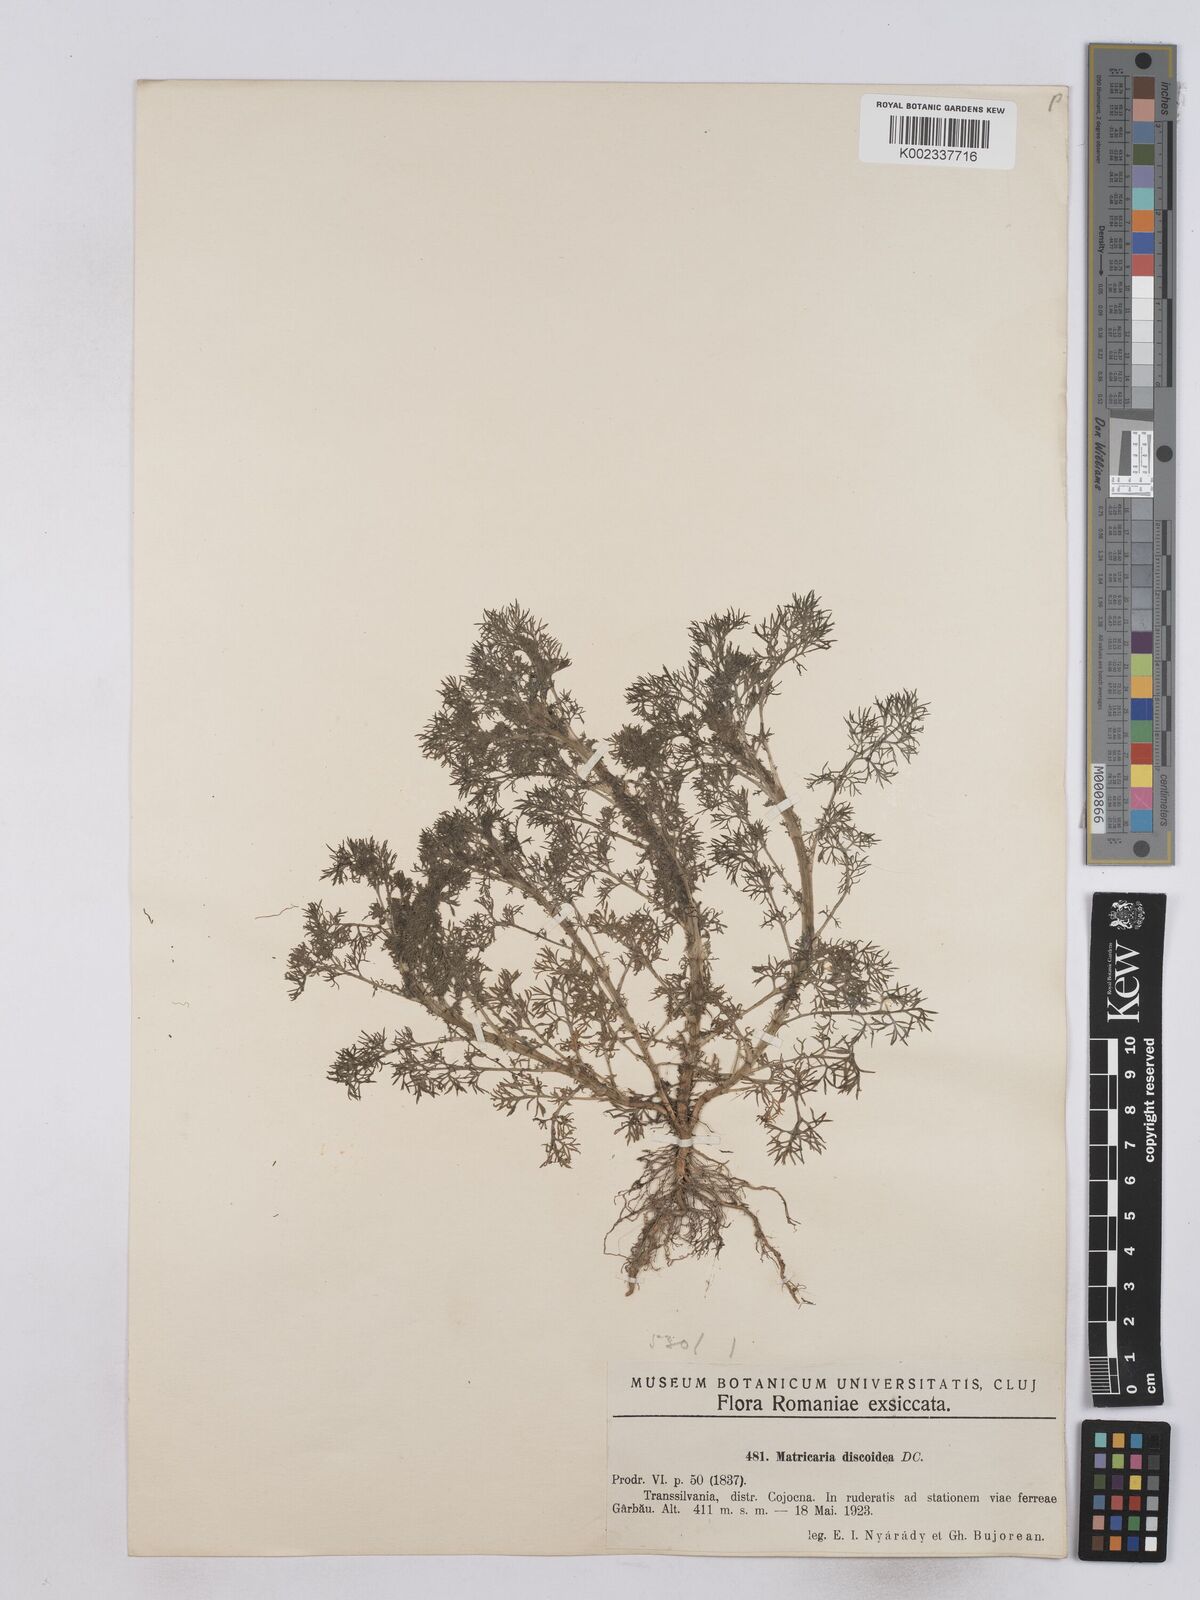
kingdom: Plantae
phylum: Tracheophyta
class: Magnoliopsida
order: Asterales
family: Asteraceae
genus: Matricaria
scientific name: Matricaria discoidea
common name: Disc mayweed
